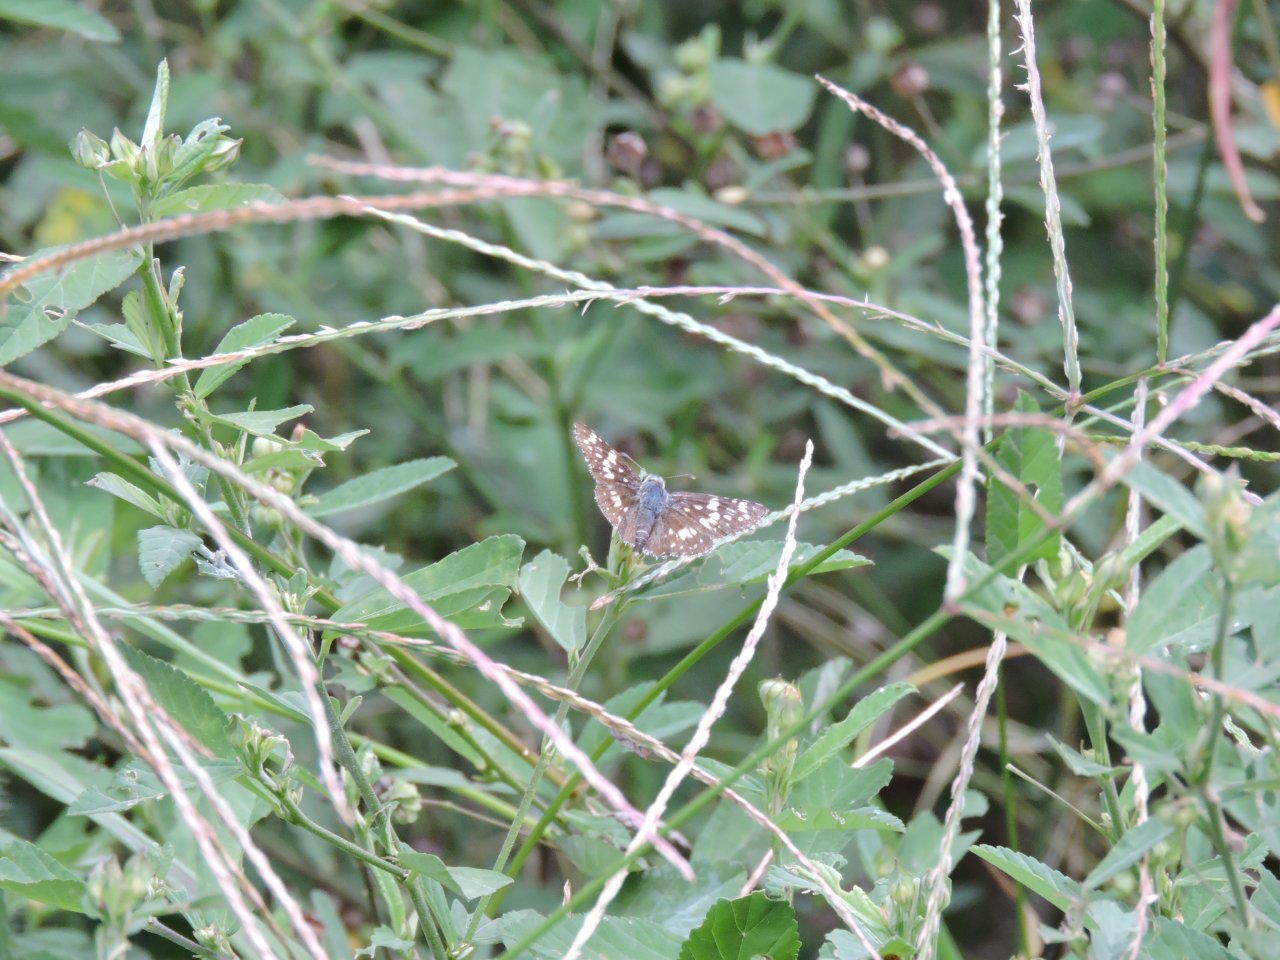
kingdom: Animalia
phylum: Arthropoda
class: Insecta
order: Lepidoptera
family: Hesperiidae
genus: Pyrgus
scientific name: Pyrgus
